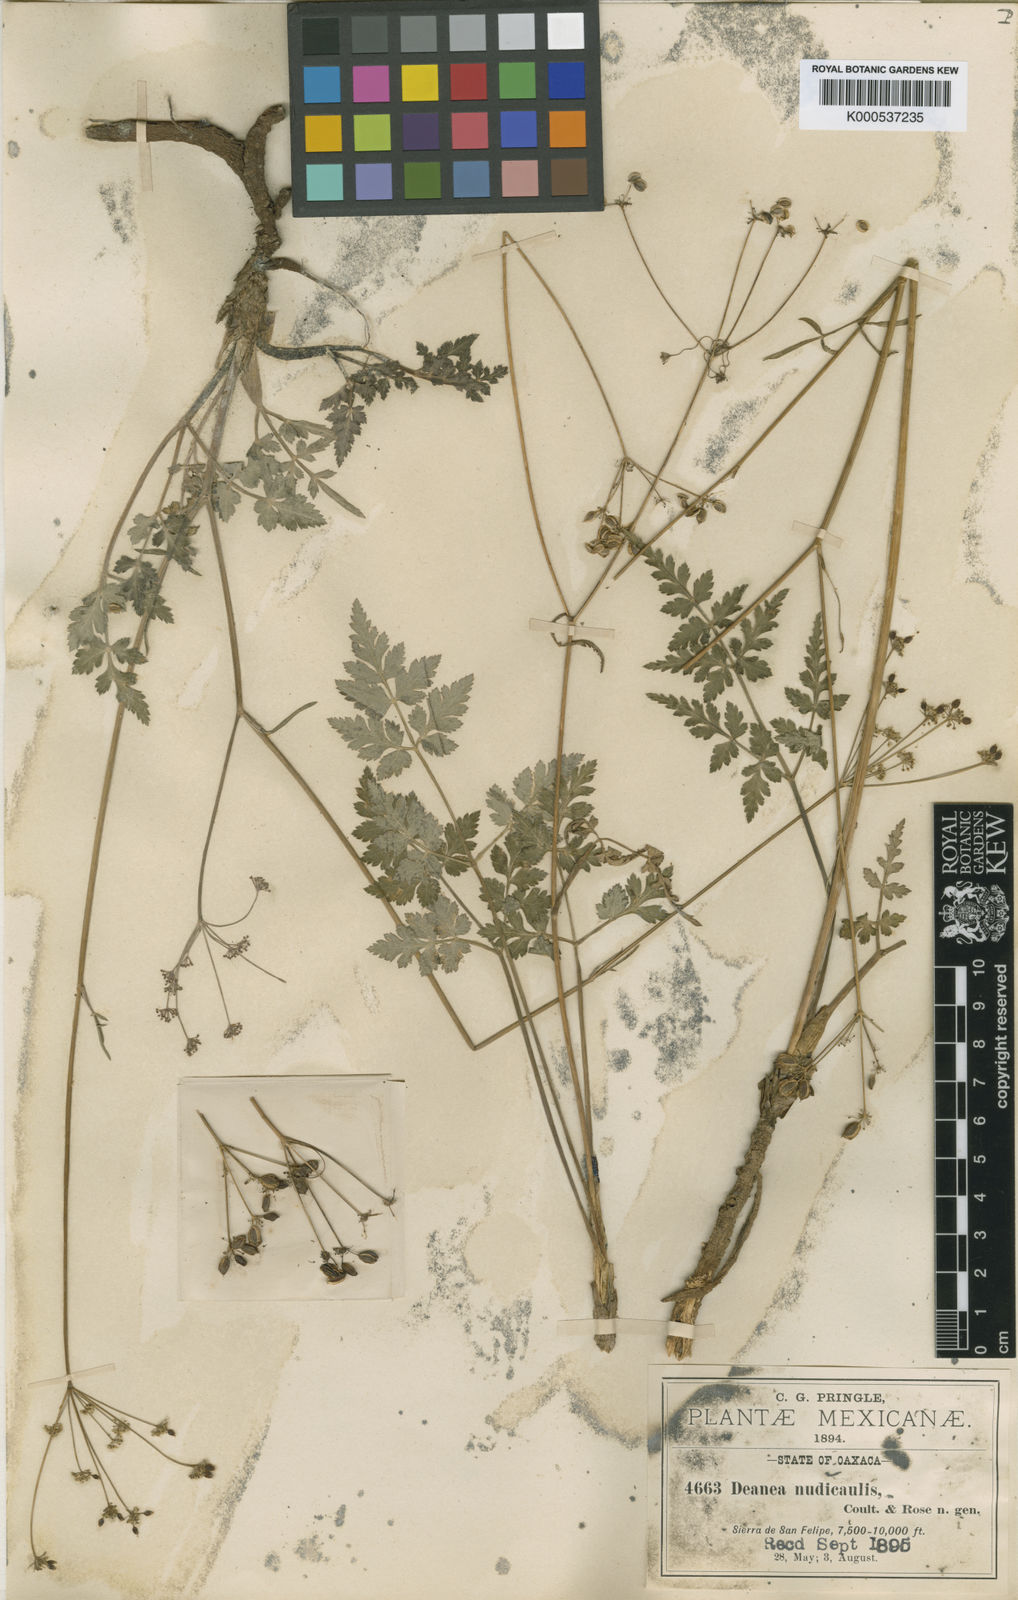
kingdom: Plantae
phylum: Tracheophyta
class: Magnoliopsida
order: Apiales
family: Apiaceae
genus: Rhodosciadium
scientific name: Rhodosciadium
